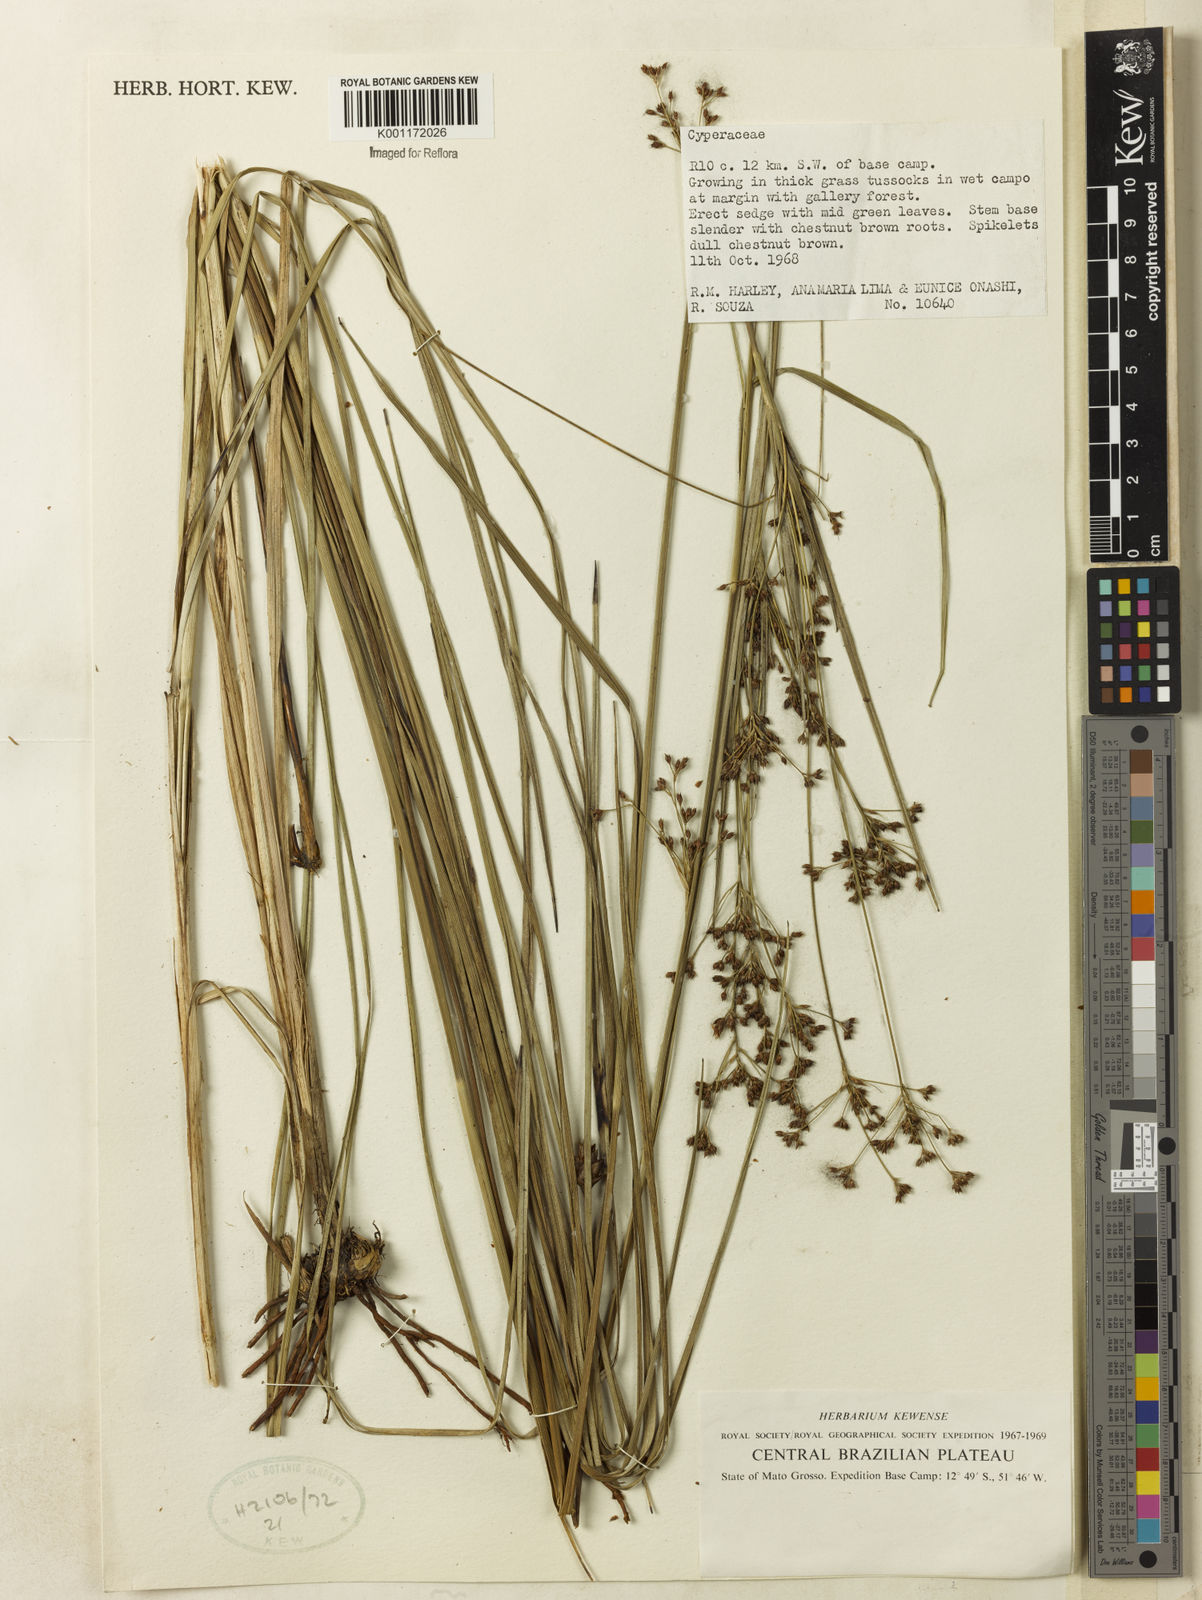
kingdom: Plantae
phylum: Tracheophyta
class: Liliopsida
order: Poales
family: Cyperaceae
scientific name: Cyperaceae
